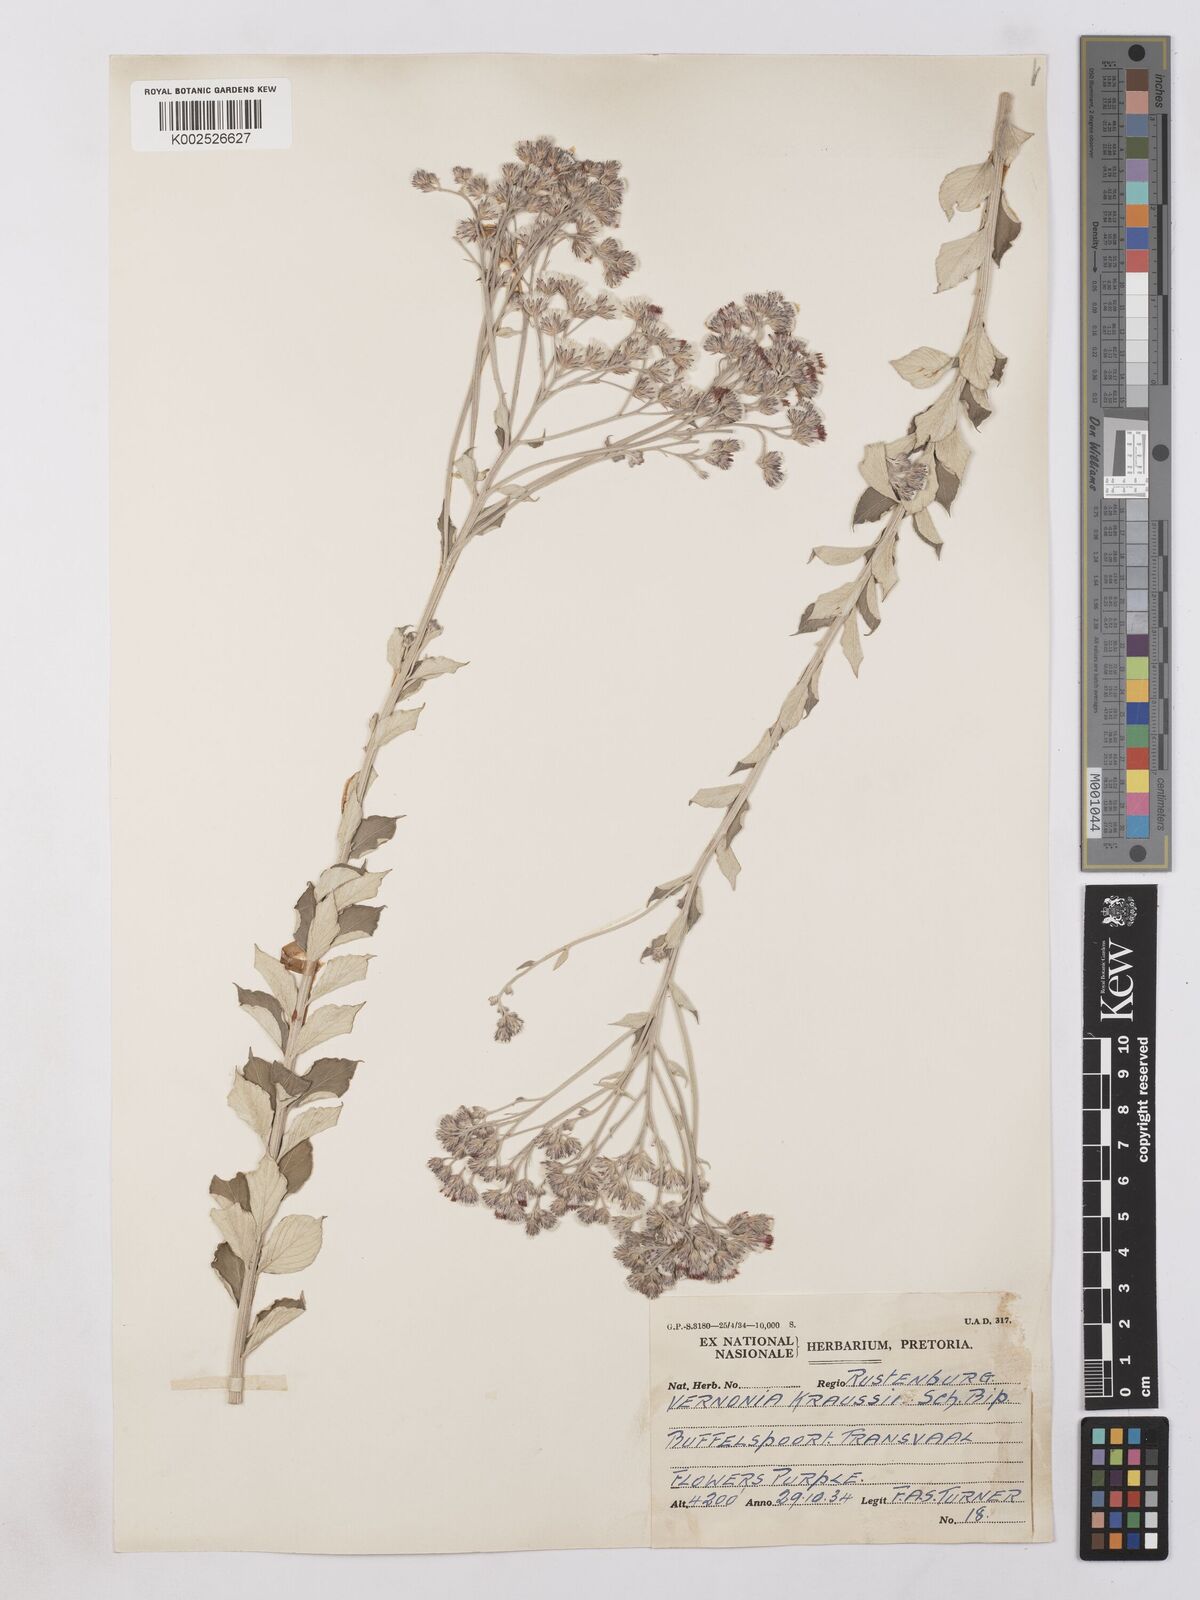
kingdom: Plantae
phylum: Tracheophyta
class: Magnoliopsida
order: Asterales
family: Asteraceae
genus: Hilliardiella
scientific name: Hilliardiella oligocephala
